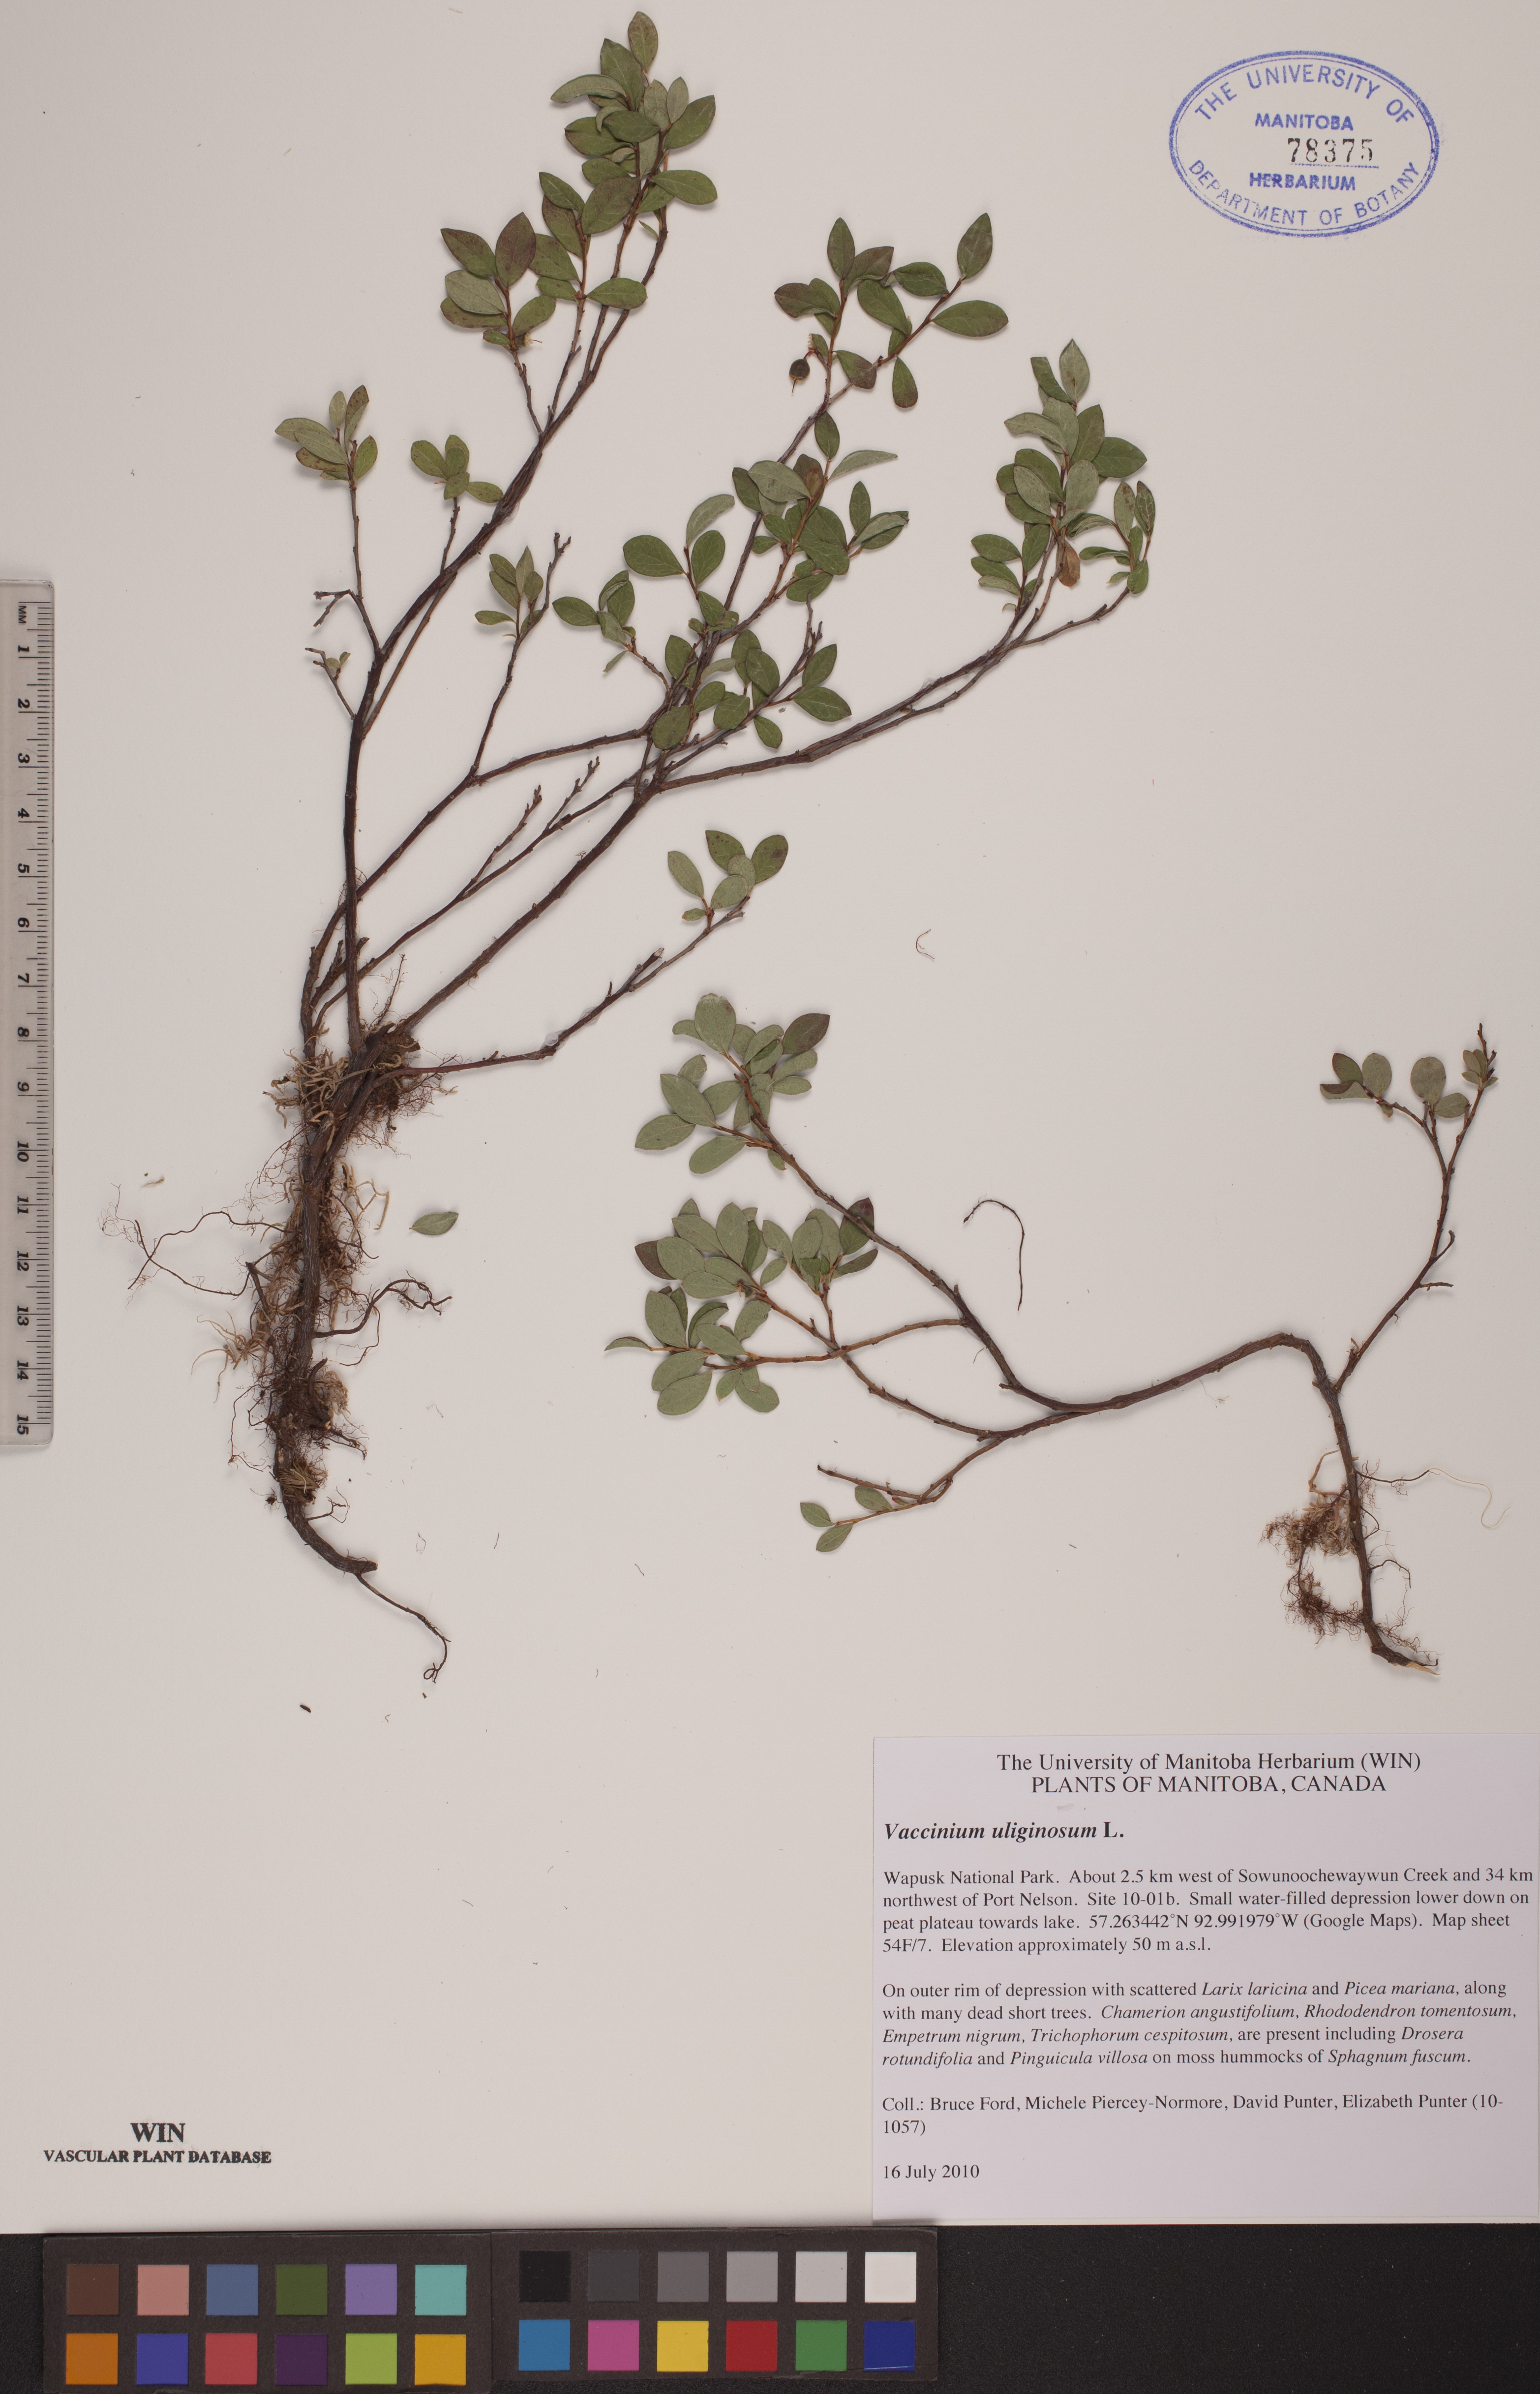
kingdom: Plantae
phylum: Tracheophyta
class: Magnoliopsida
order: Ericales
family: Ericaceae
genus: Vaccinium
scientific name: Vaccinium uliginosum
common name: Bog bilberry
